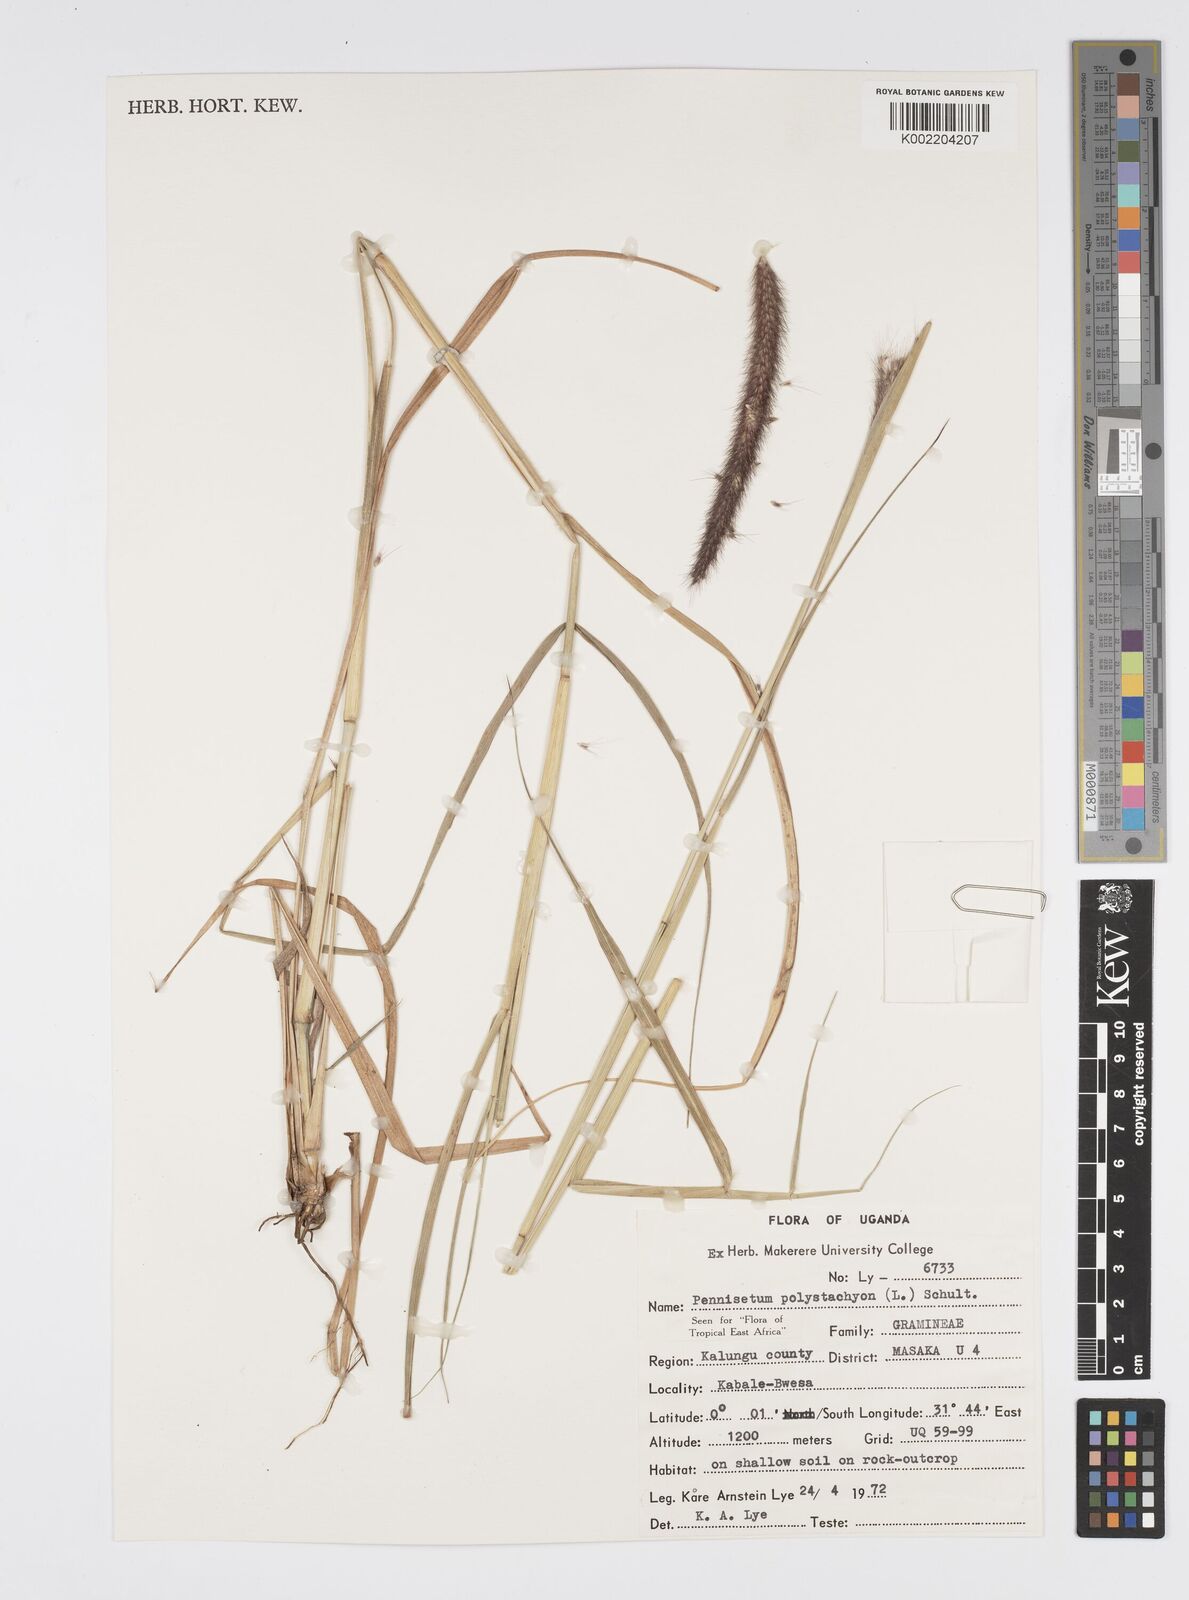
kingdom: Plantae
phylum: Tracheophyta
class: Liliopsida
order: Poales
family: Poaceae
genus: Setaria
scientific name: Setaria parviflora
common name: Knotroot bristle-grass
